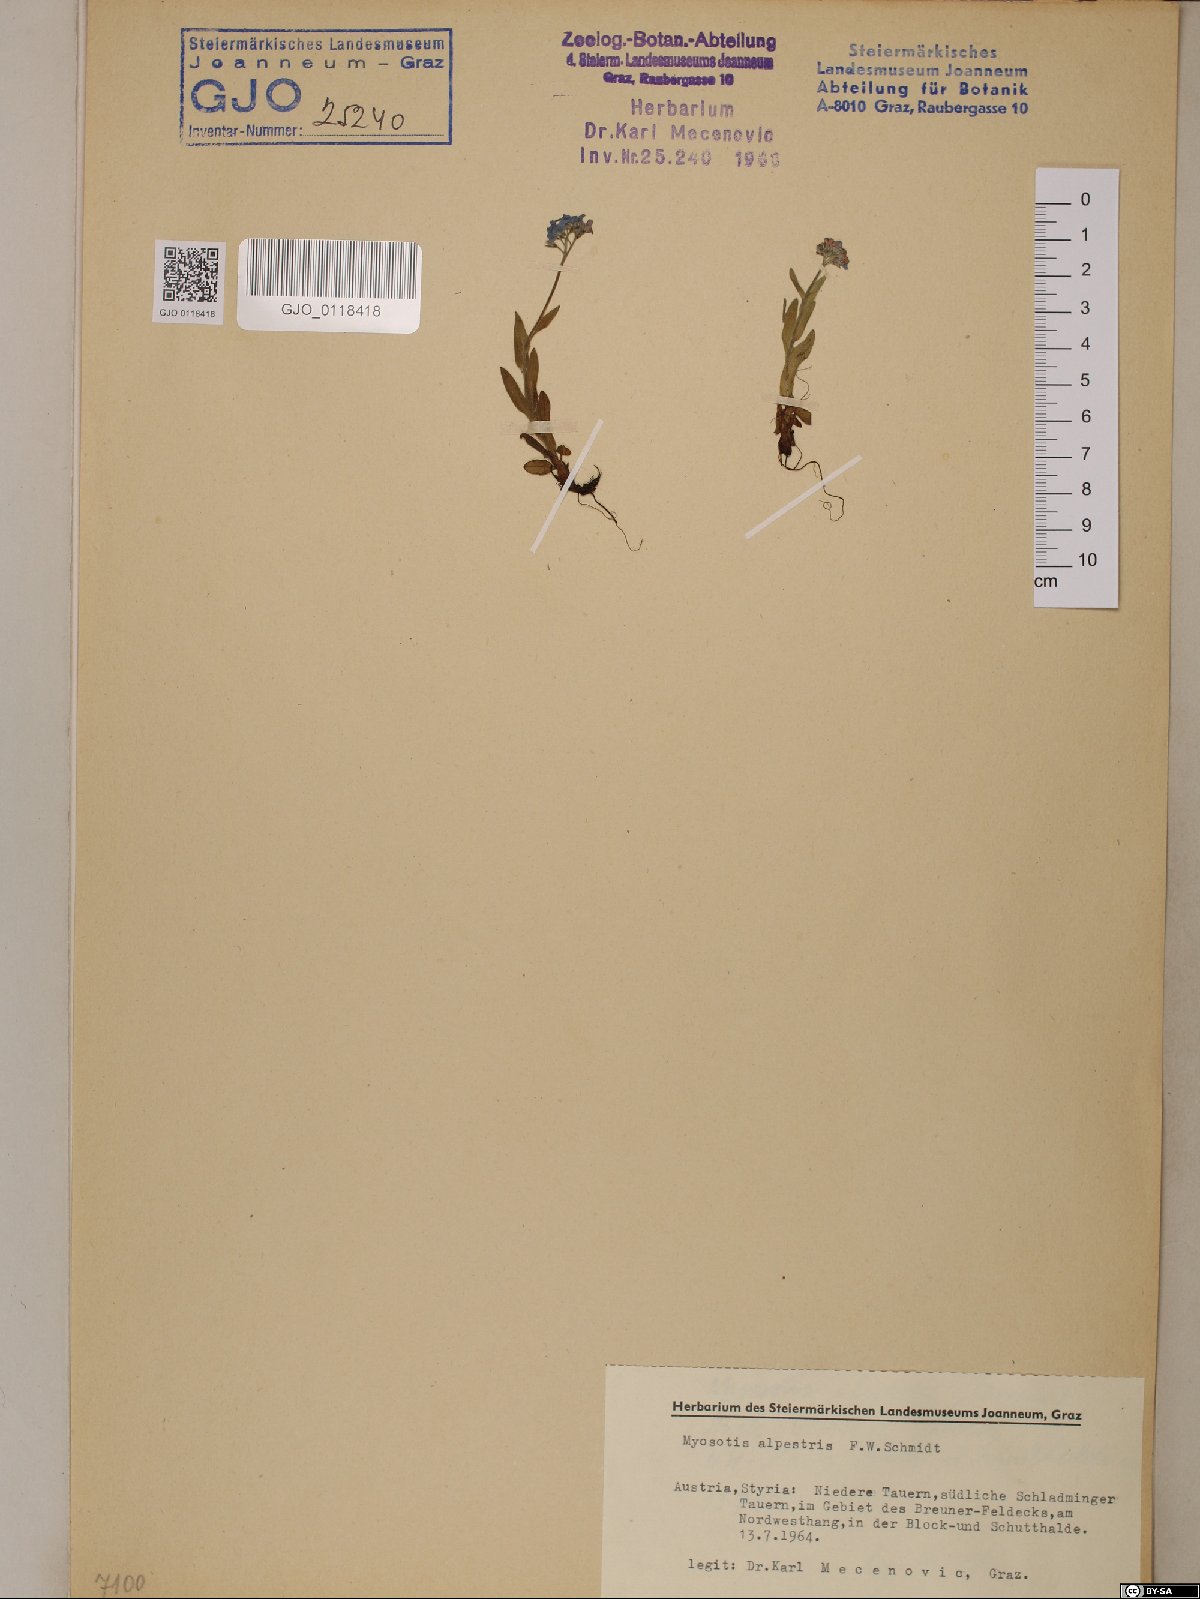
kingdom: Plantae
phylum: Tracheophyta
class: Magnoliopsida
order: Boraginales
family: Boraginaceae
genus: Myosotis
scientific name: Myosotis alpestris
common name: Alpine forget-me-not
